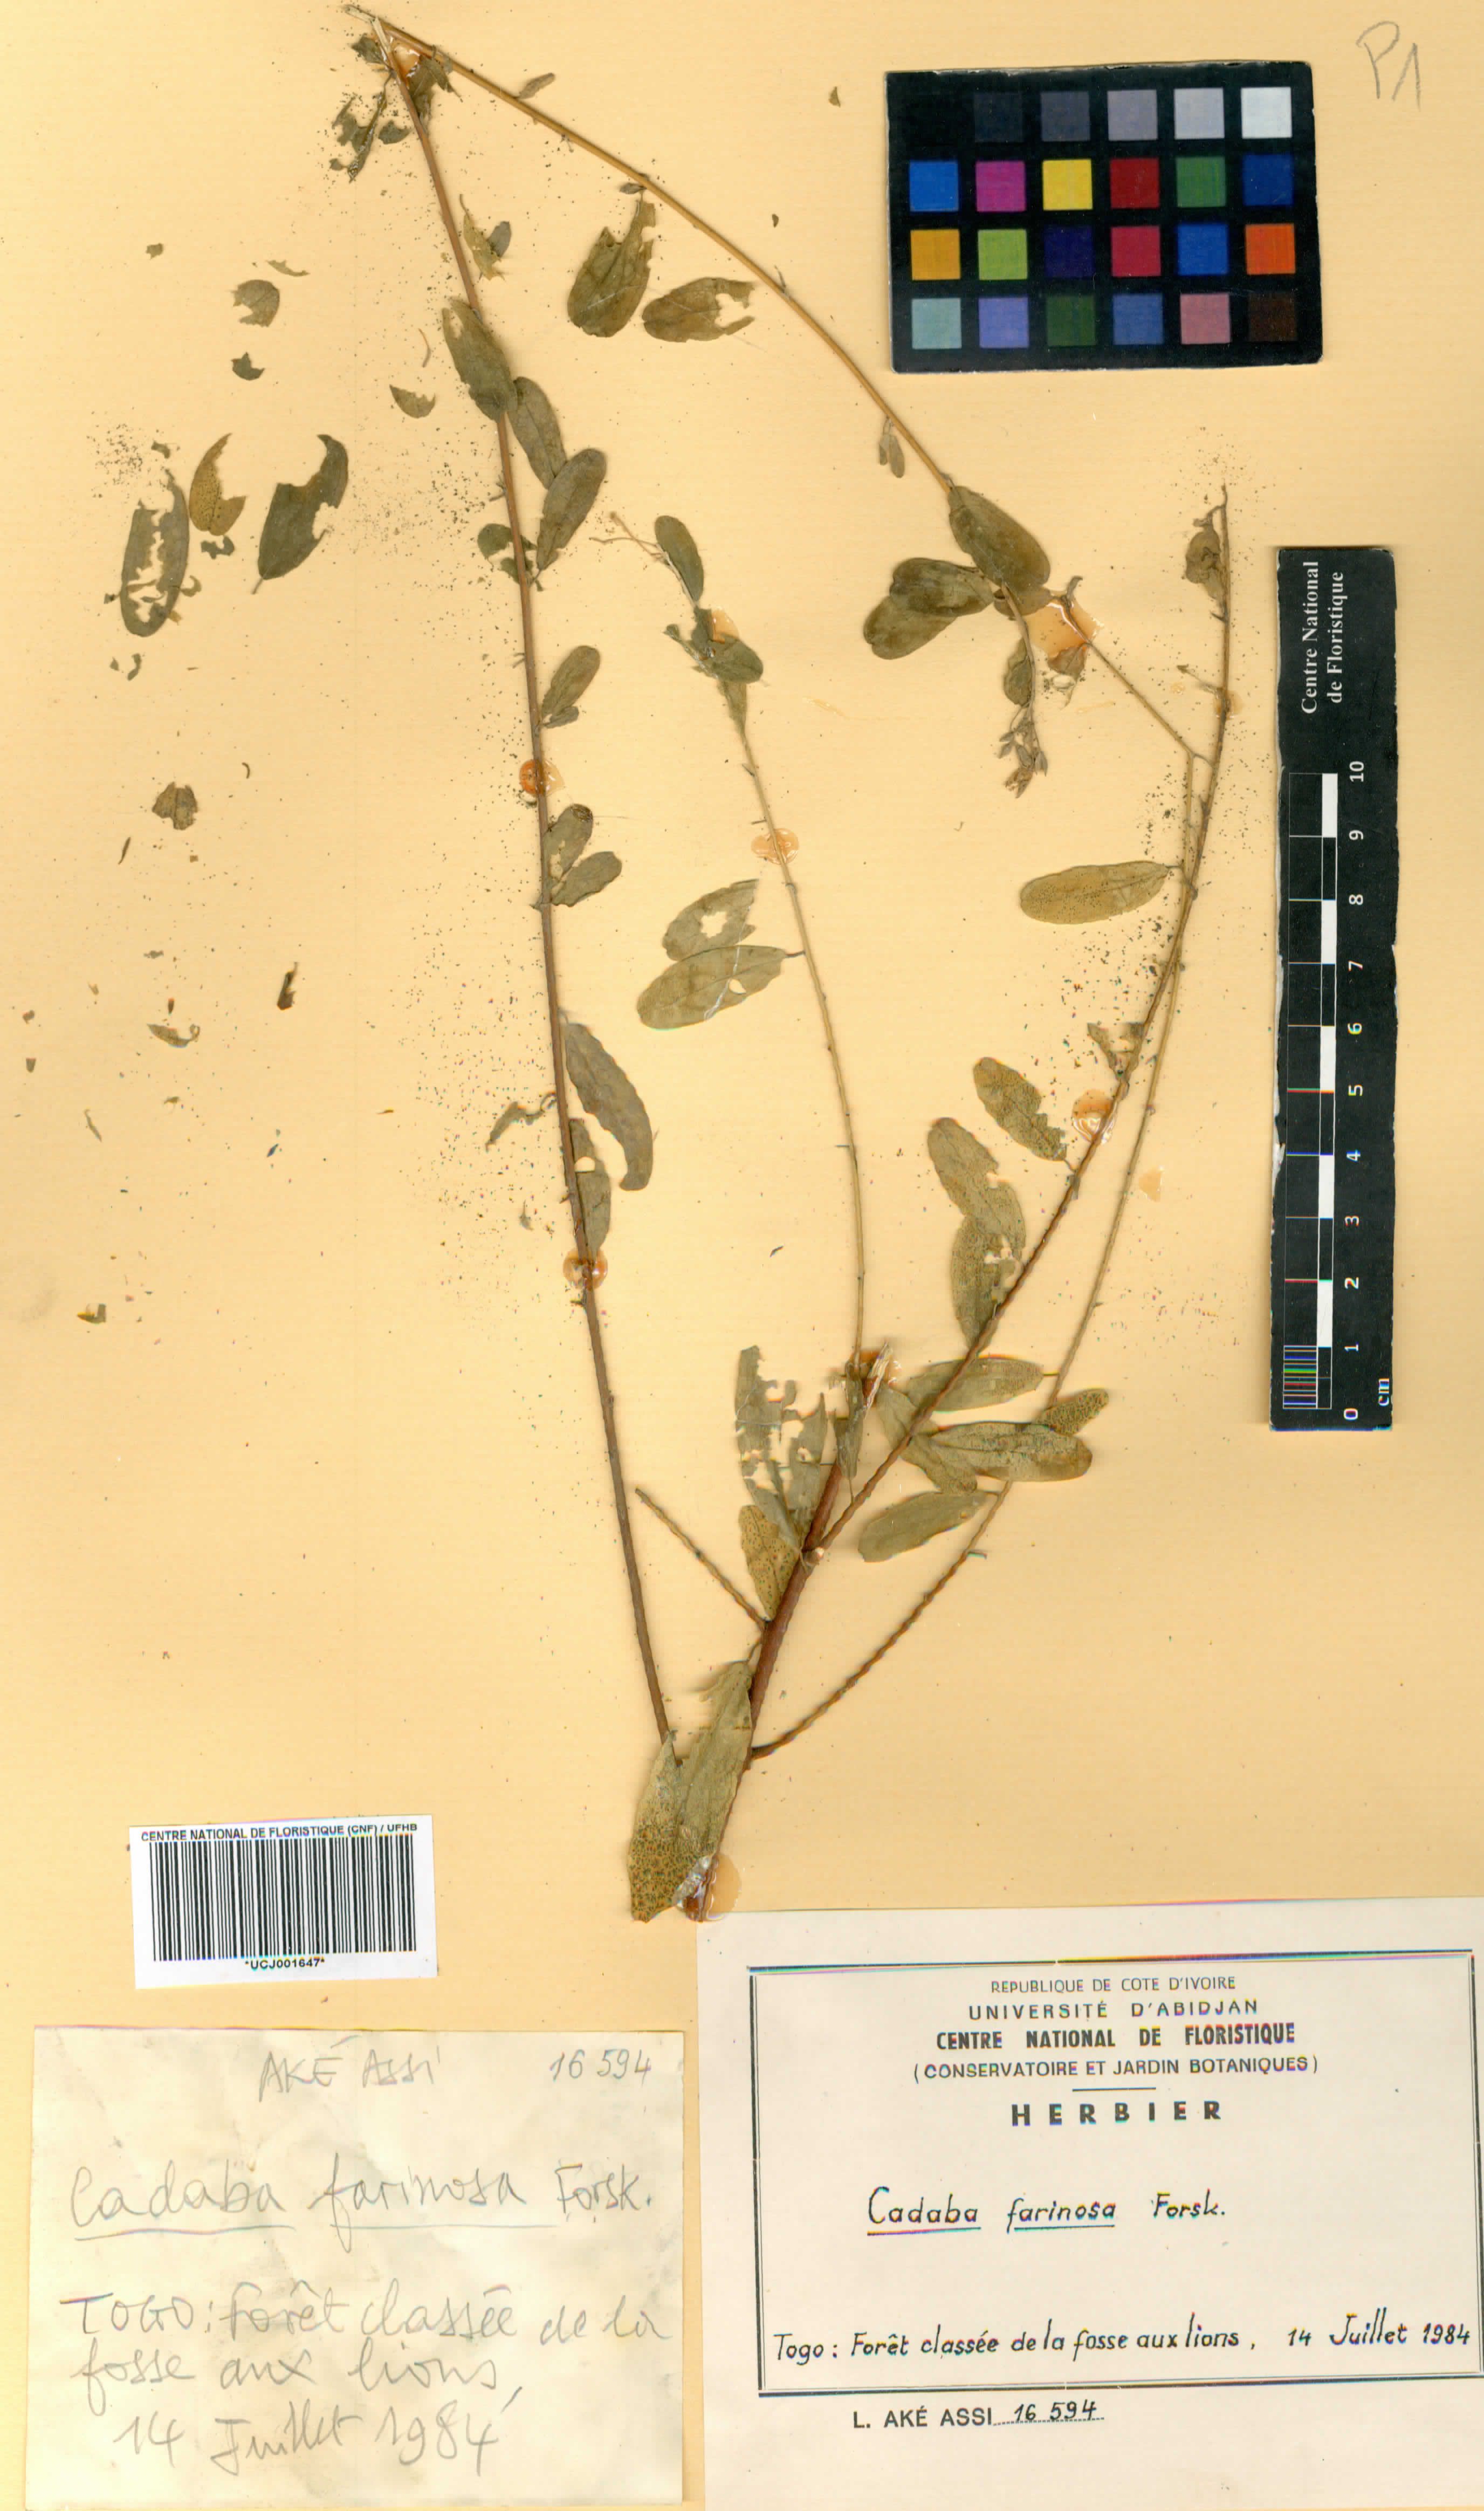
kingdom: Plantae
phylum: Tracheophyta
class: Magnoliopsida
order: Brassicales
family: Capparaceae
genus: Cadaba
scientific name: Cadaba farinosa
